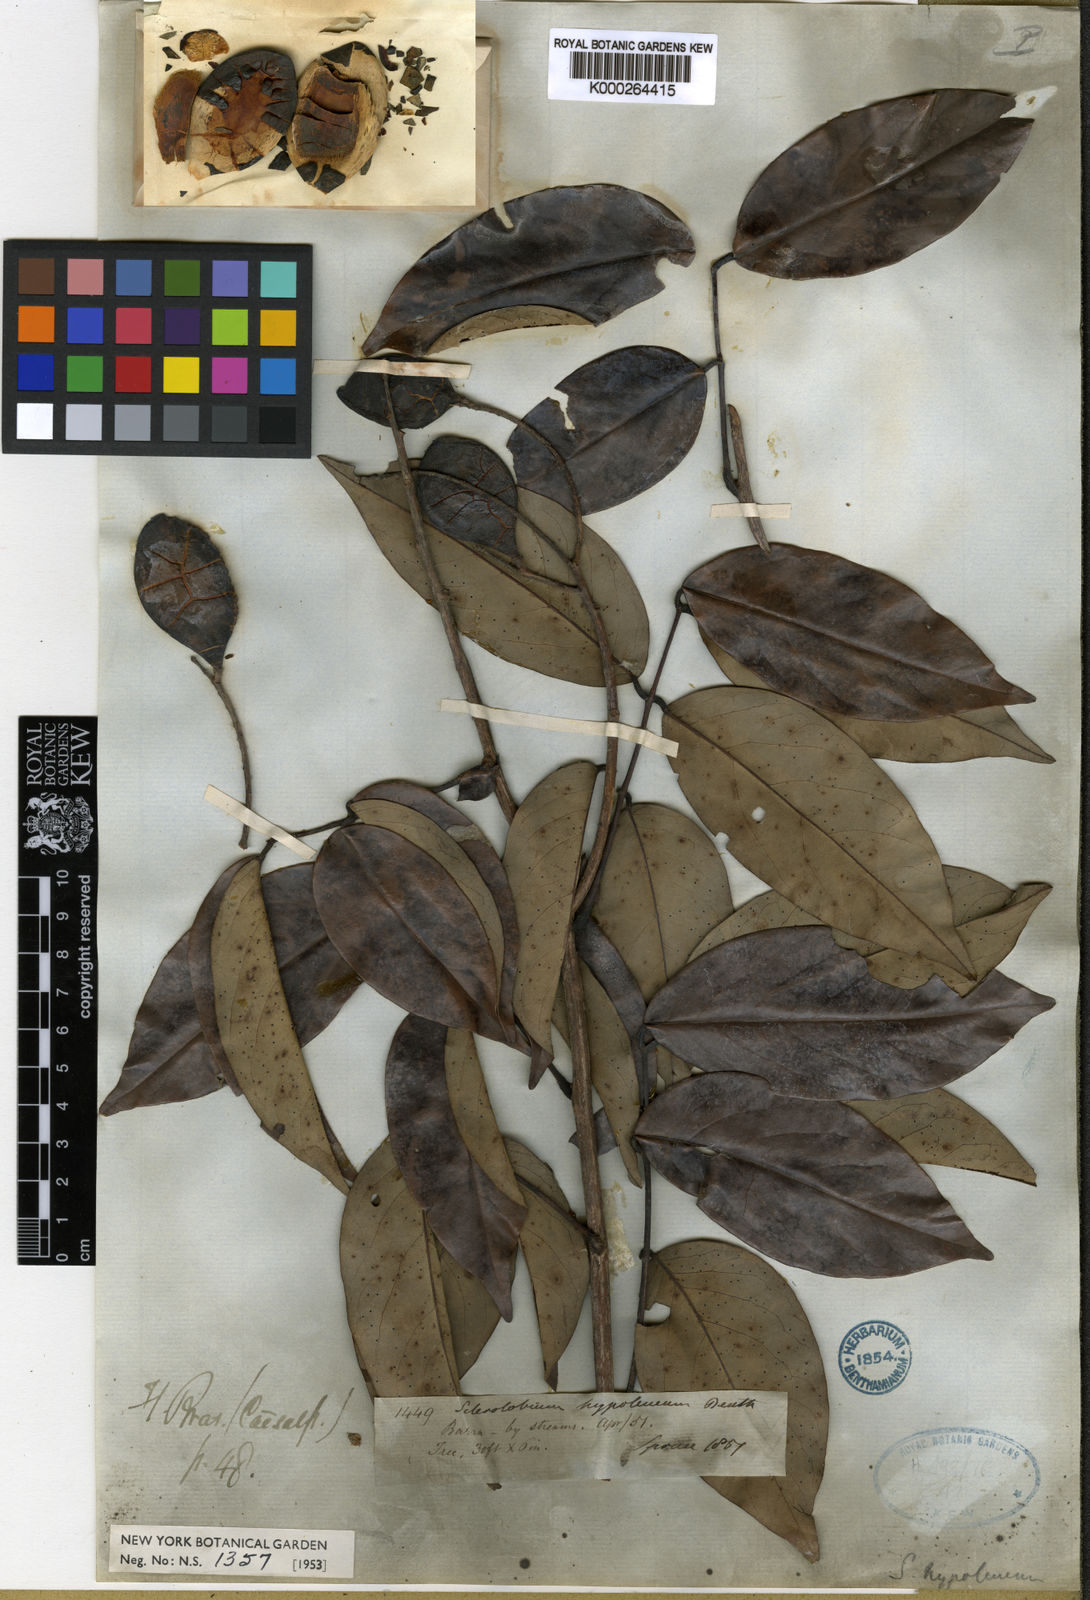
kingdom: Plantae
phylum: Tracheophyta
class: Magnoliopsida
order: Fabales
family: Fabaceae
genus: Tachigali
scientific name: Tachigali hypoleuca
